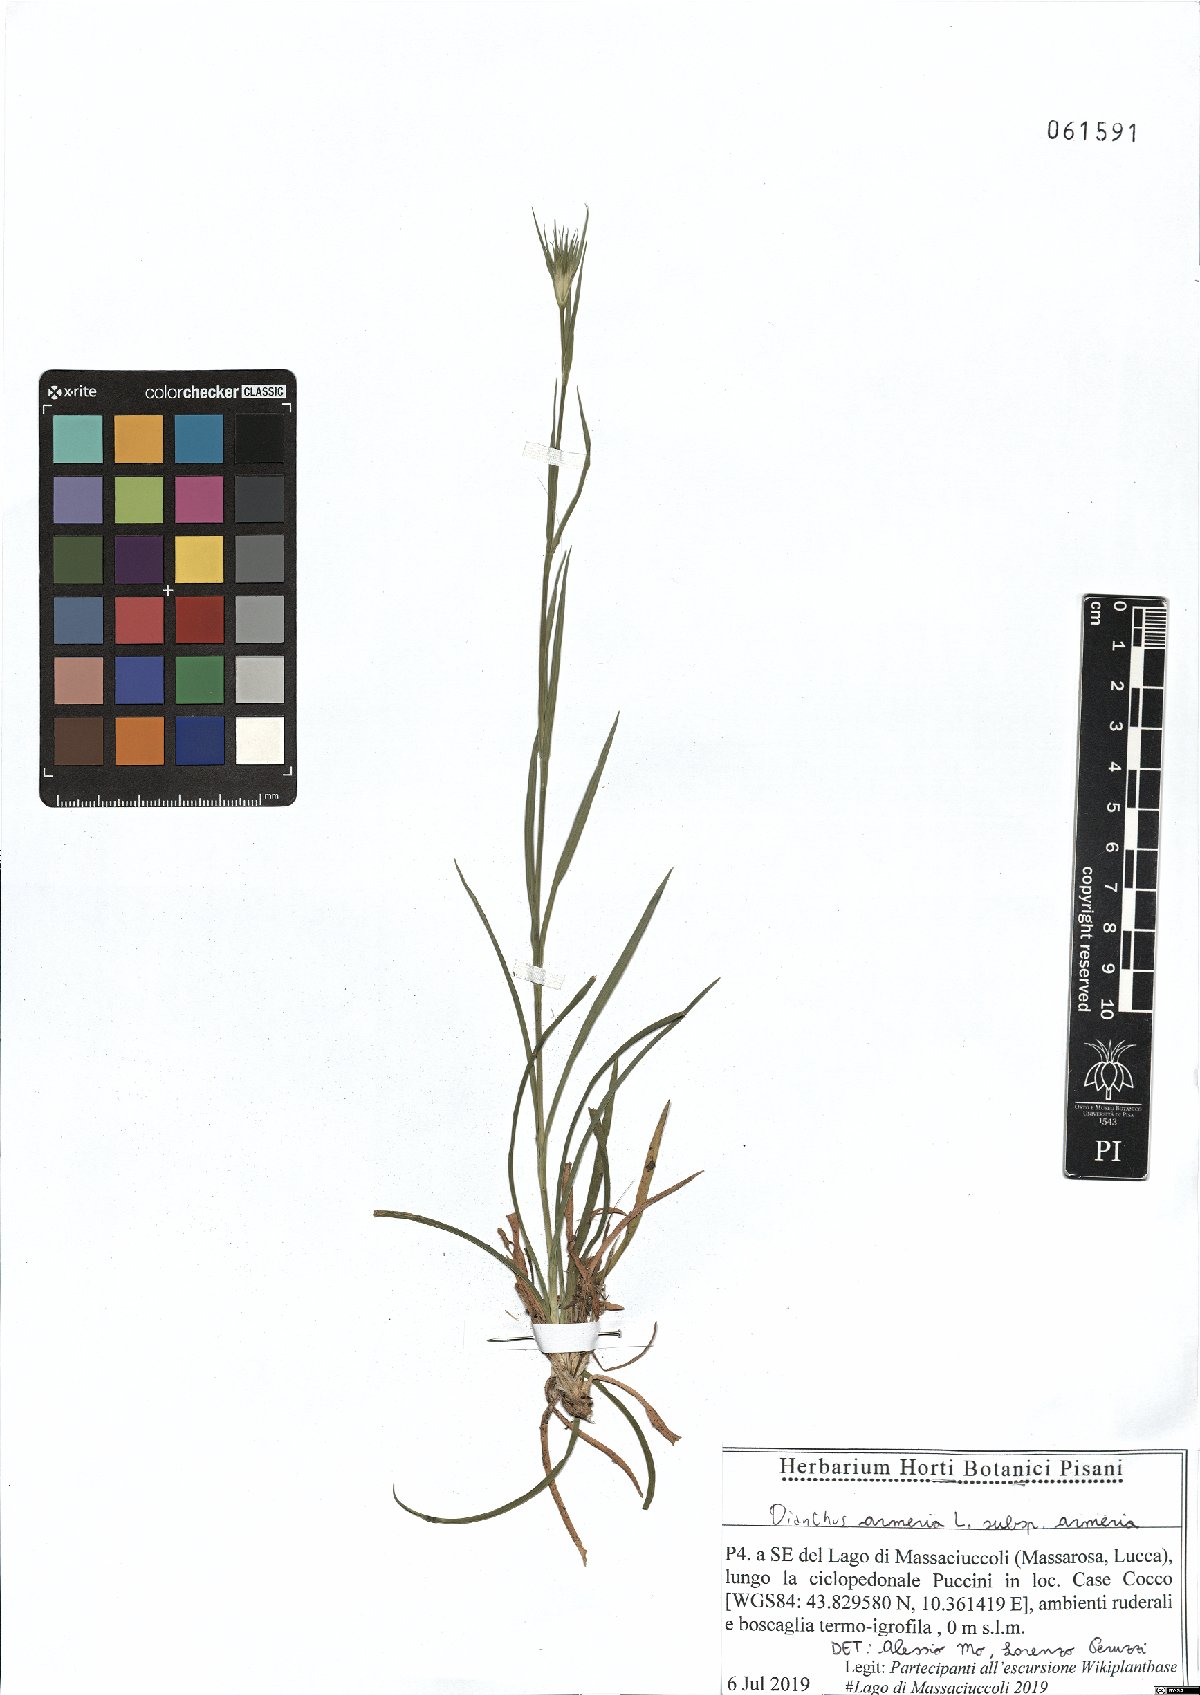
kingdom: Plantae
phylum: Tracheophyta
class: Magnoliopsida
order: Caryophyllales
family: Caryophyllaceae
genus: Dianthus
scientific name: Dianthus armeria
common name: Deptford pink
